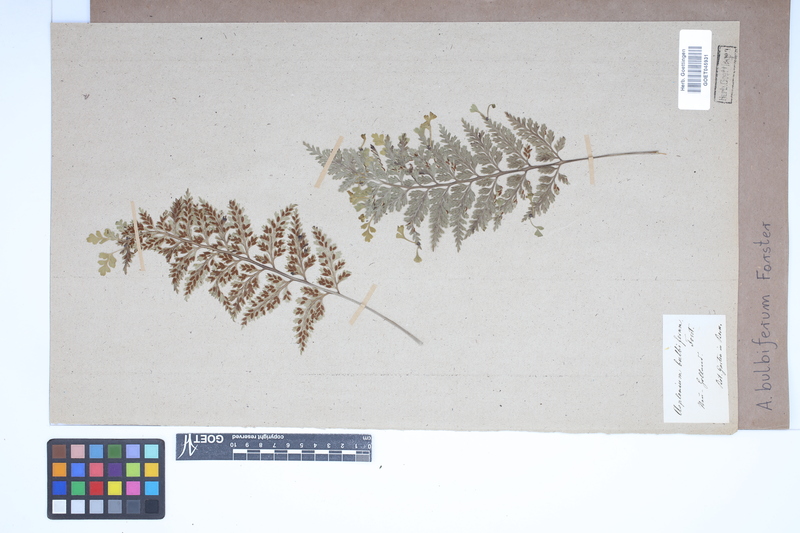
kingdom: Plantae
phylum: Tracheophyta
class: Polypodiopsida
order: Polypodiales
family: Aspleniaceae
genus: Asplenium
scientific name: Asplenium bulbiferum
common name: Mother fern
